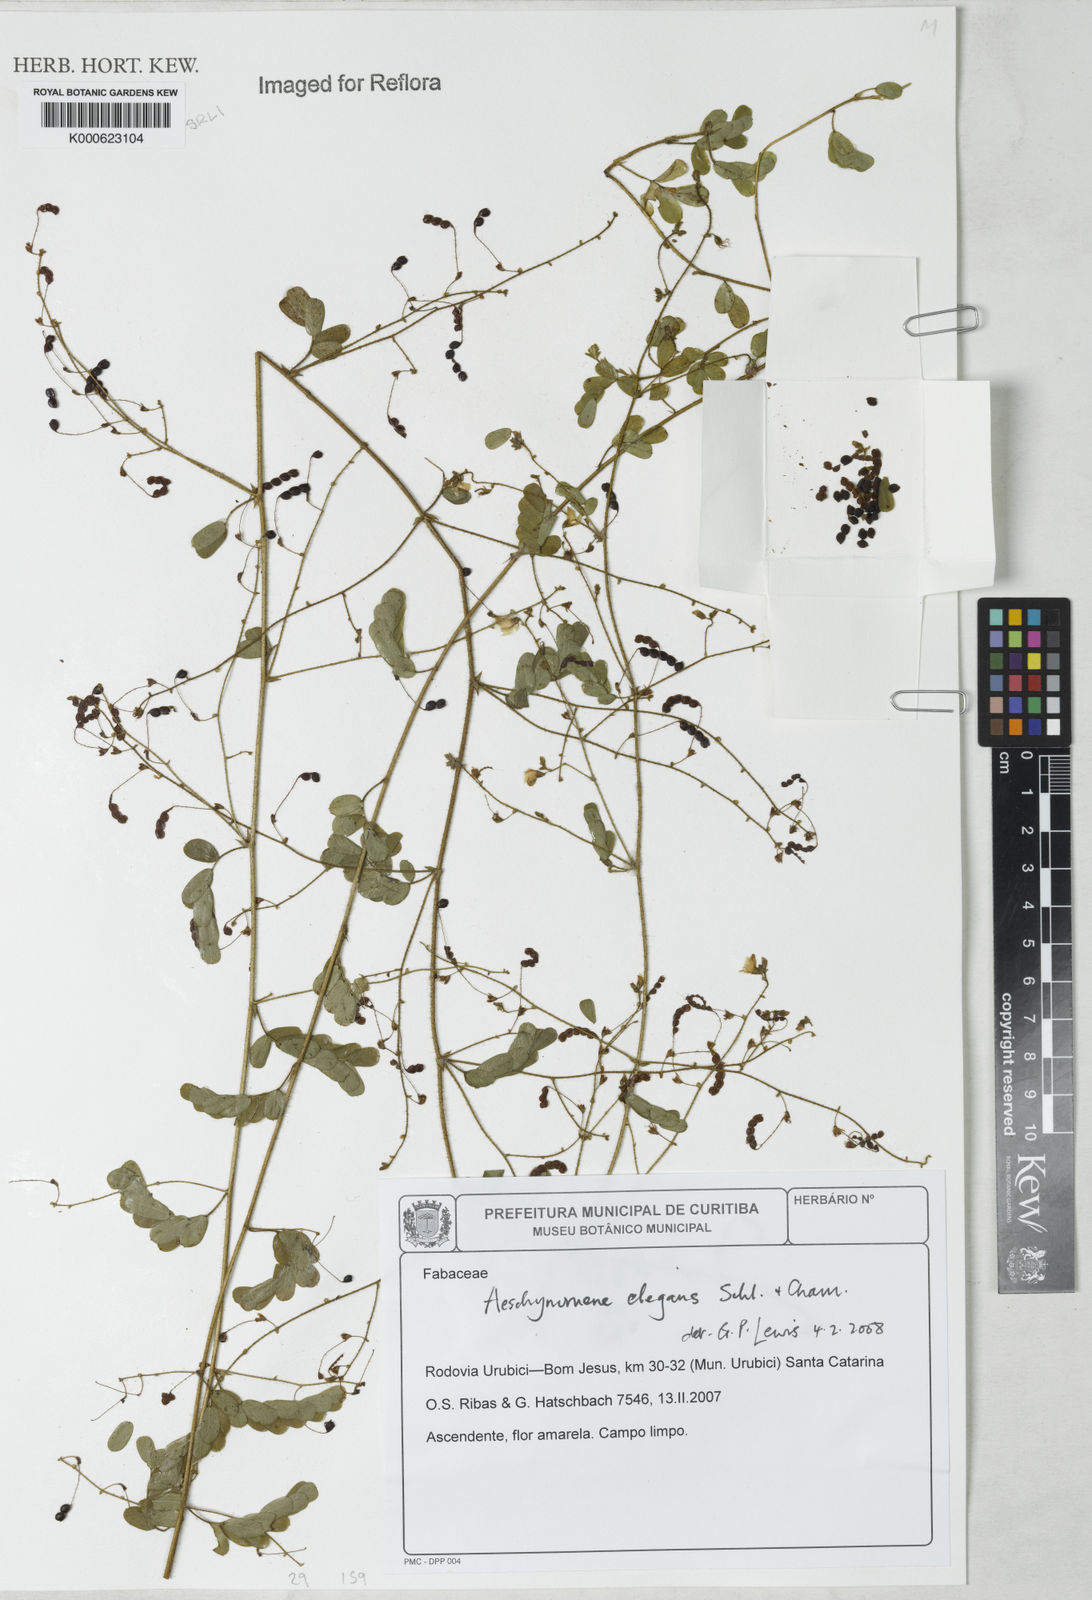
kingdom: Plantae
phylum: Tracheophyta
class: Magnoliopsida
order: Fabales
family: Fabaceae
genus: Ctenodon
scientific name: Ctenodon elegans
